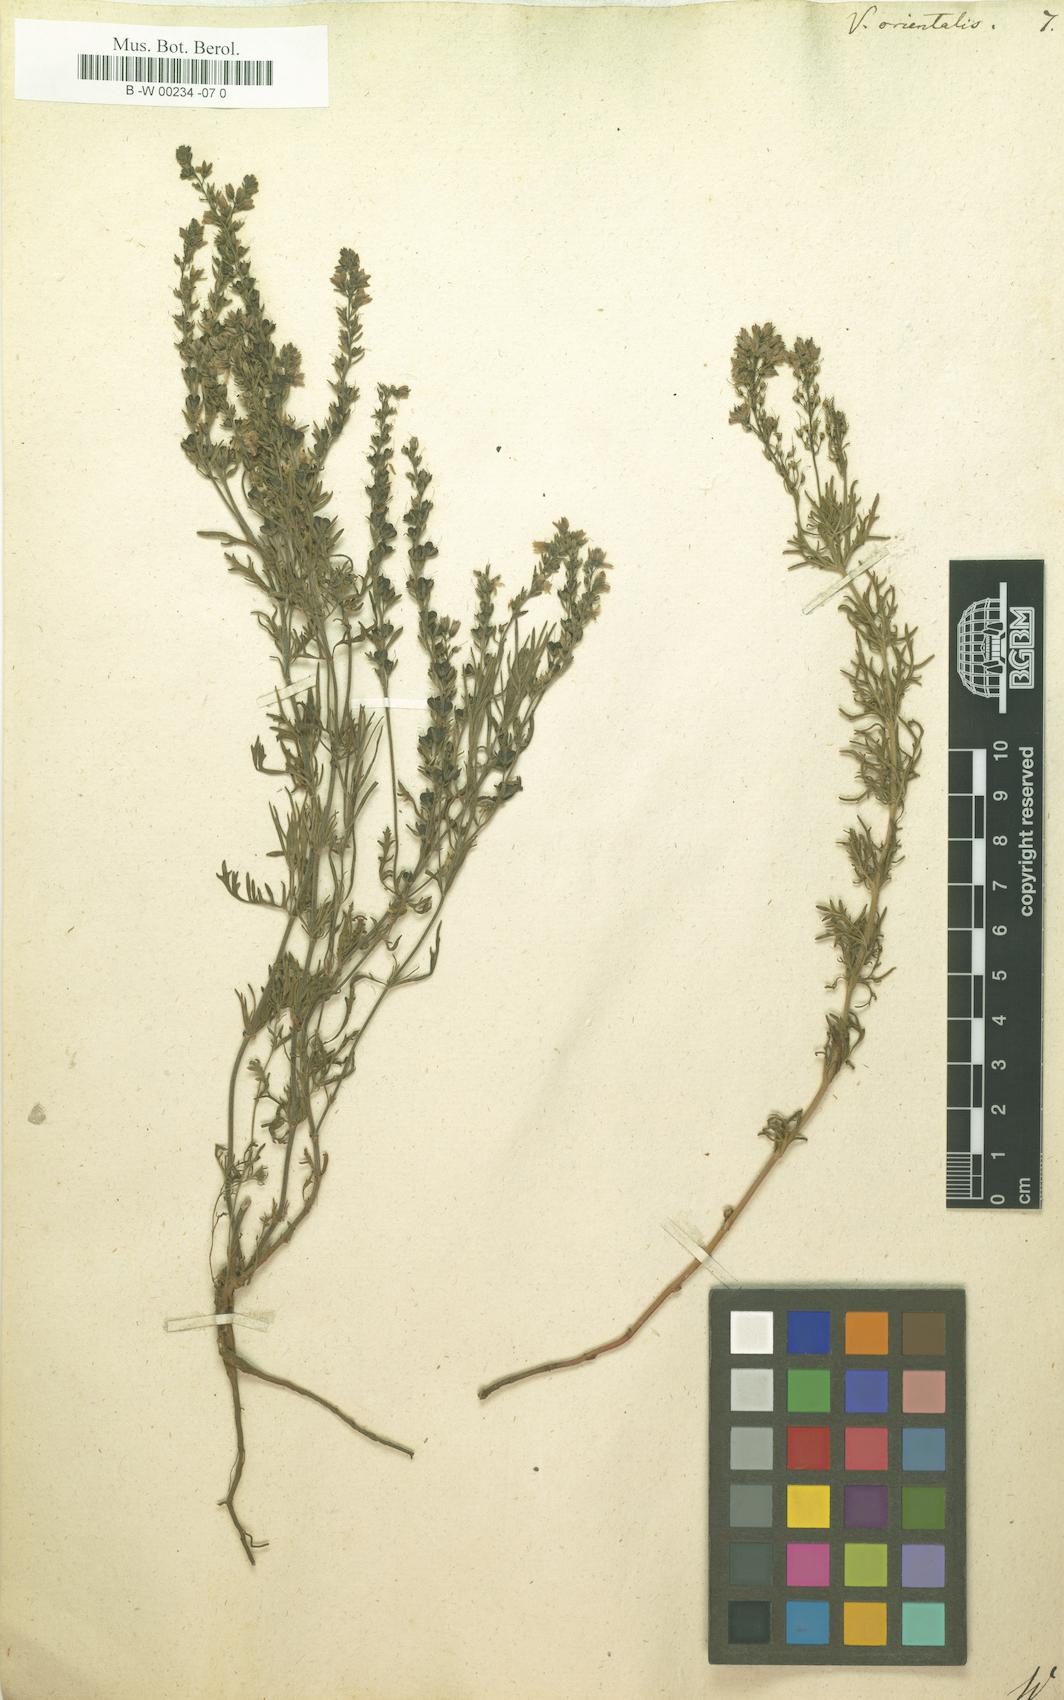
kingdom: Plantae
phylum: Tracheophyta
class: Magnoliopsida
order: Lamiales
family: Plantaginaceae
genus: Veronica
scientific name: Veronica orientalis
